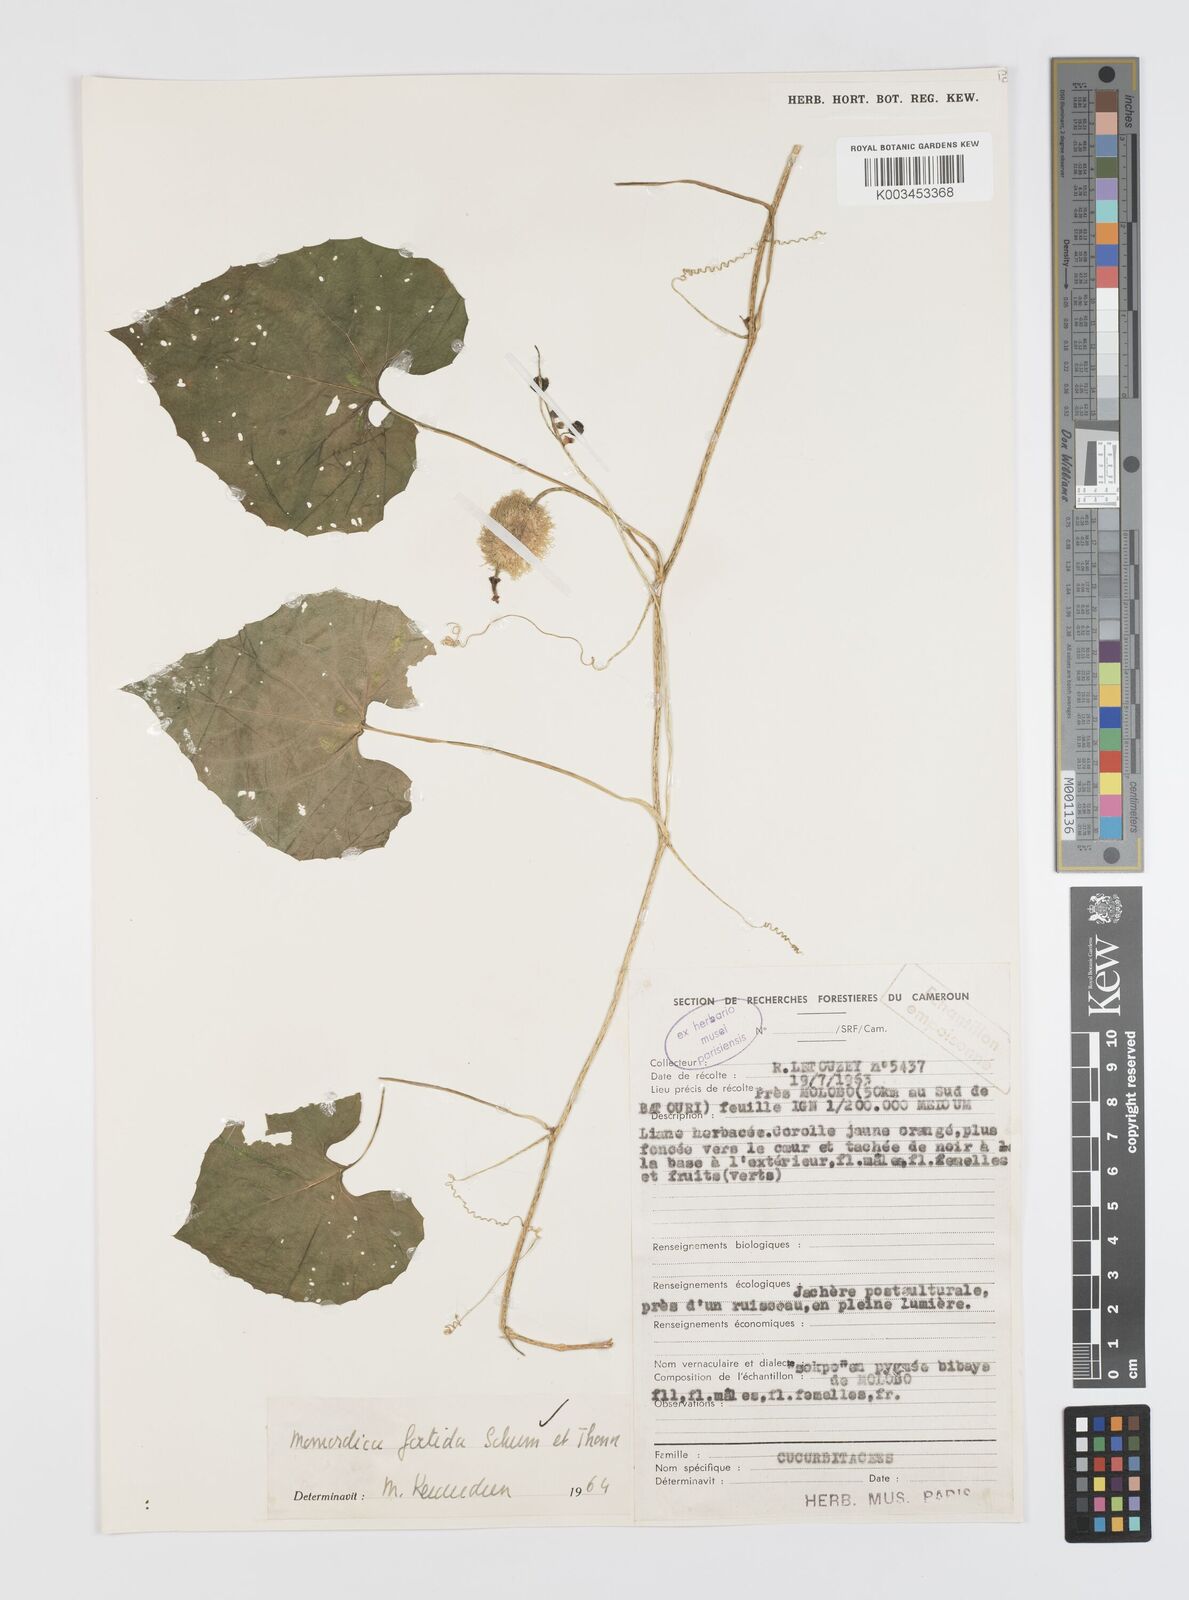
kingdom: Plantae
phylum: Tracheophyta
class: Magnoliopsida
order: Cucurbitales
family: Cucurbitaceae
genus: Momordica
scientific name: Momordica foetida
